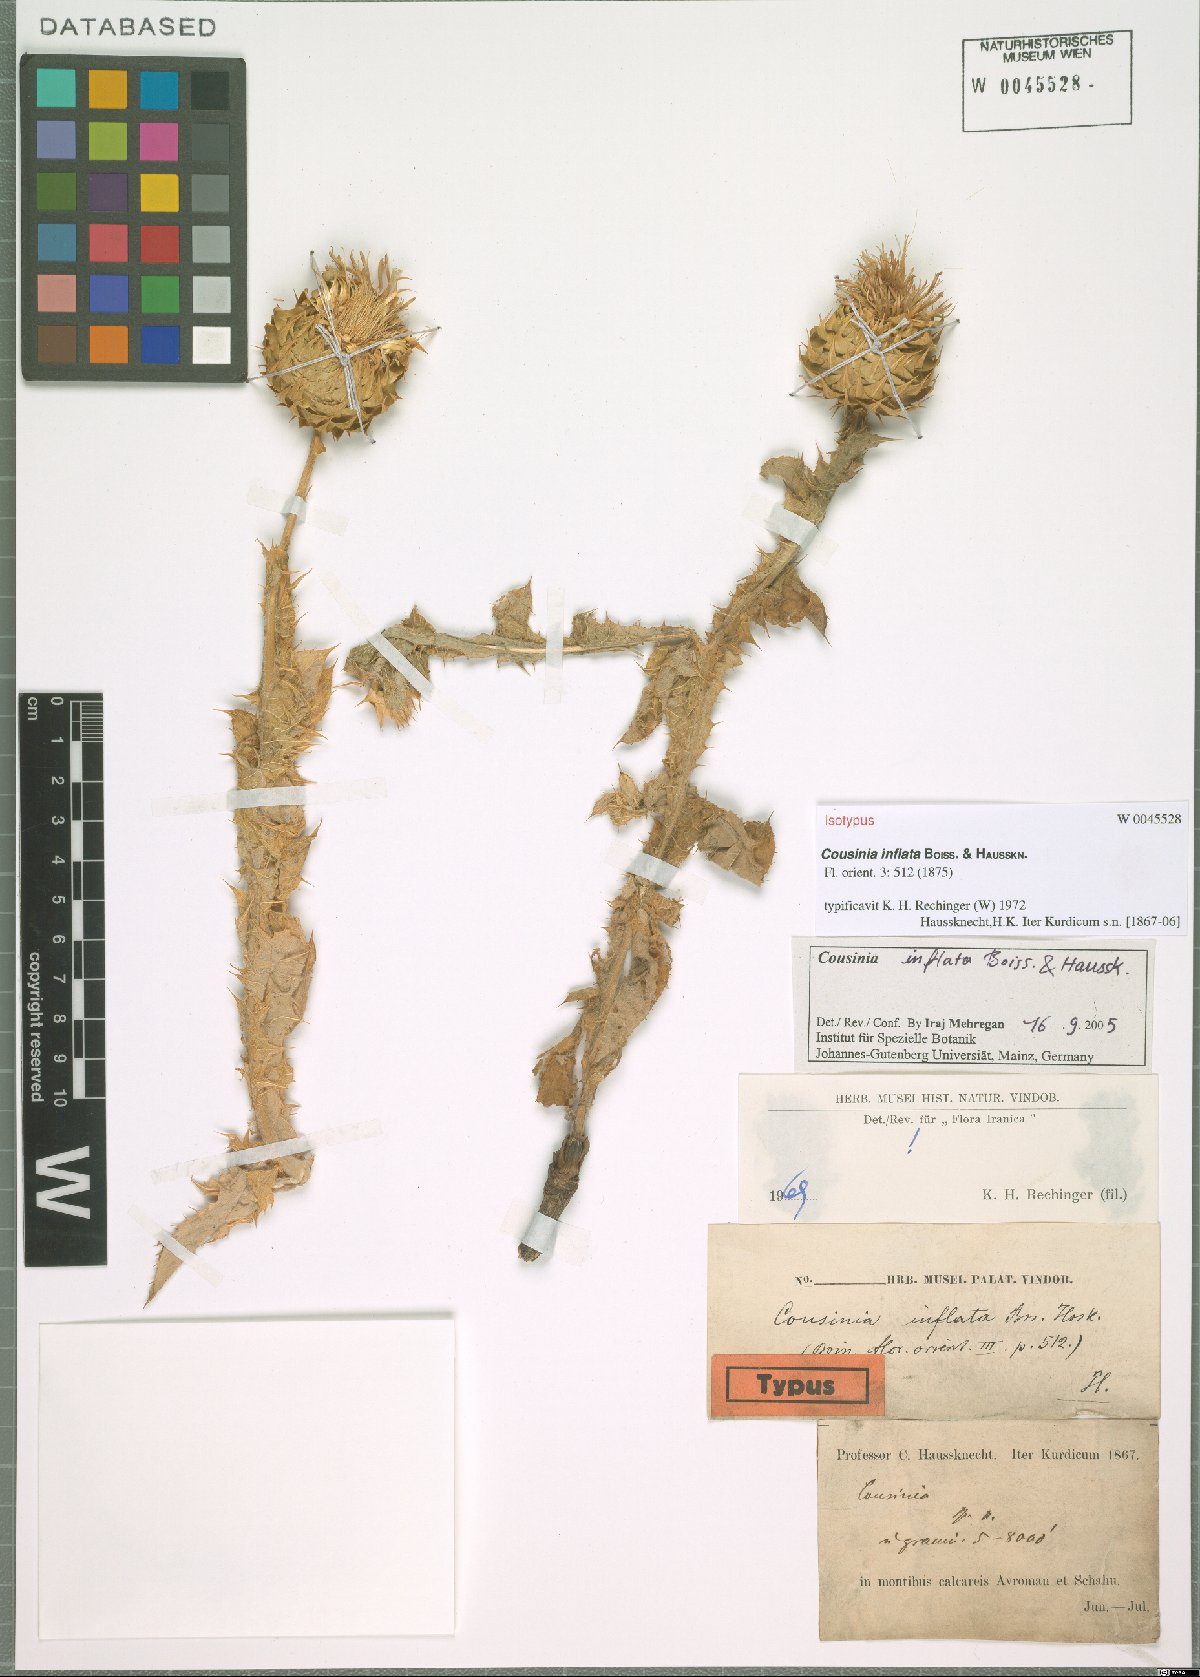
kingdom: Plantae
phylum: Tracheophyta
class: Magnoliopsida
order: Asterales
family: Asteraceae
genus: Cousinia
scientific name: Cousinia inflata
